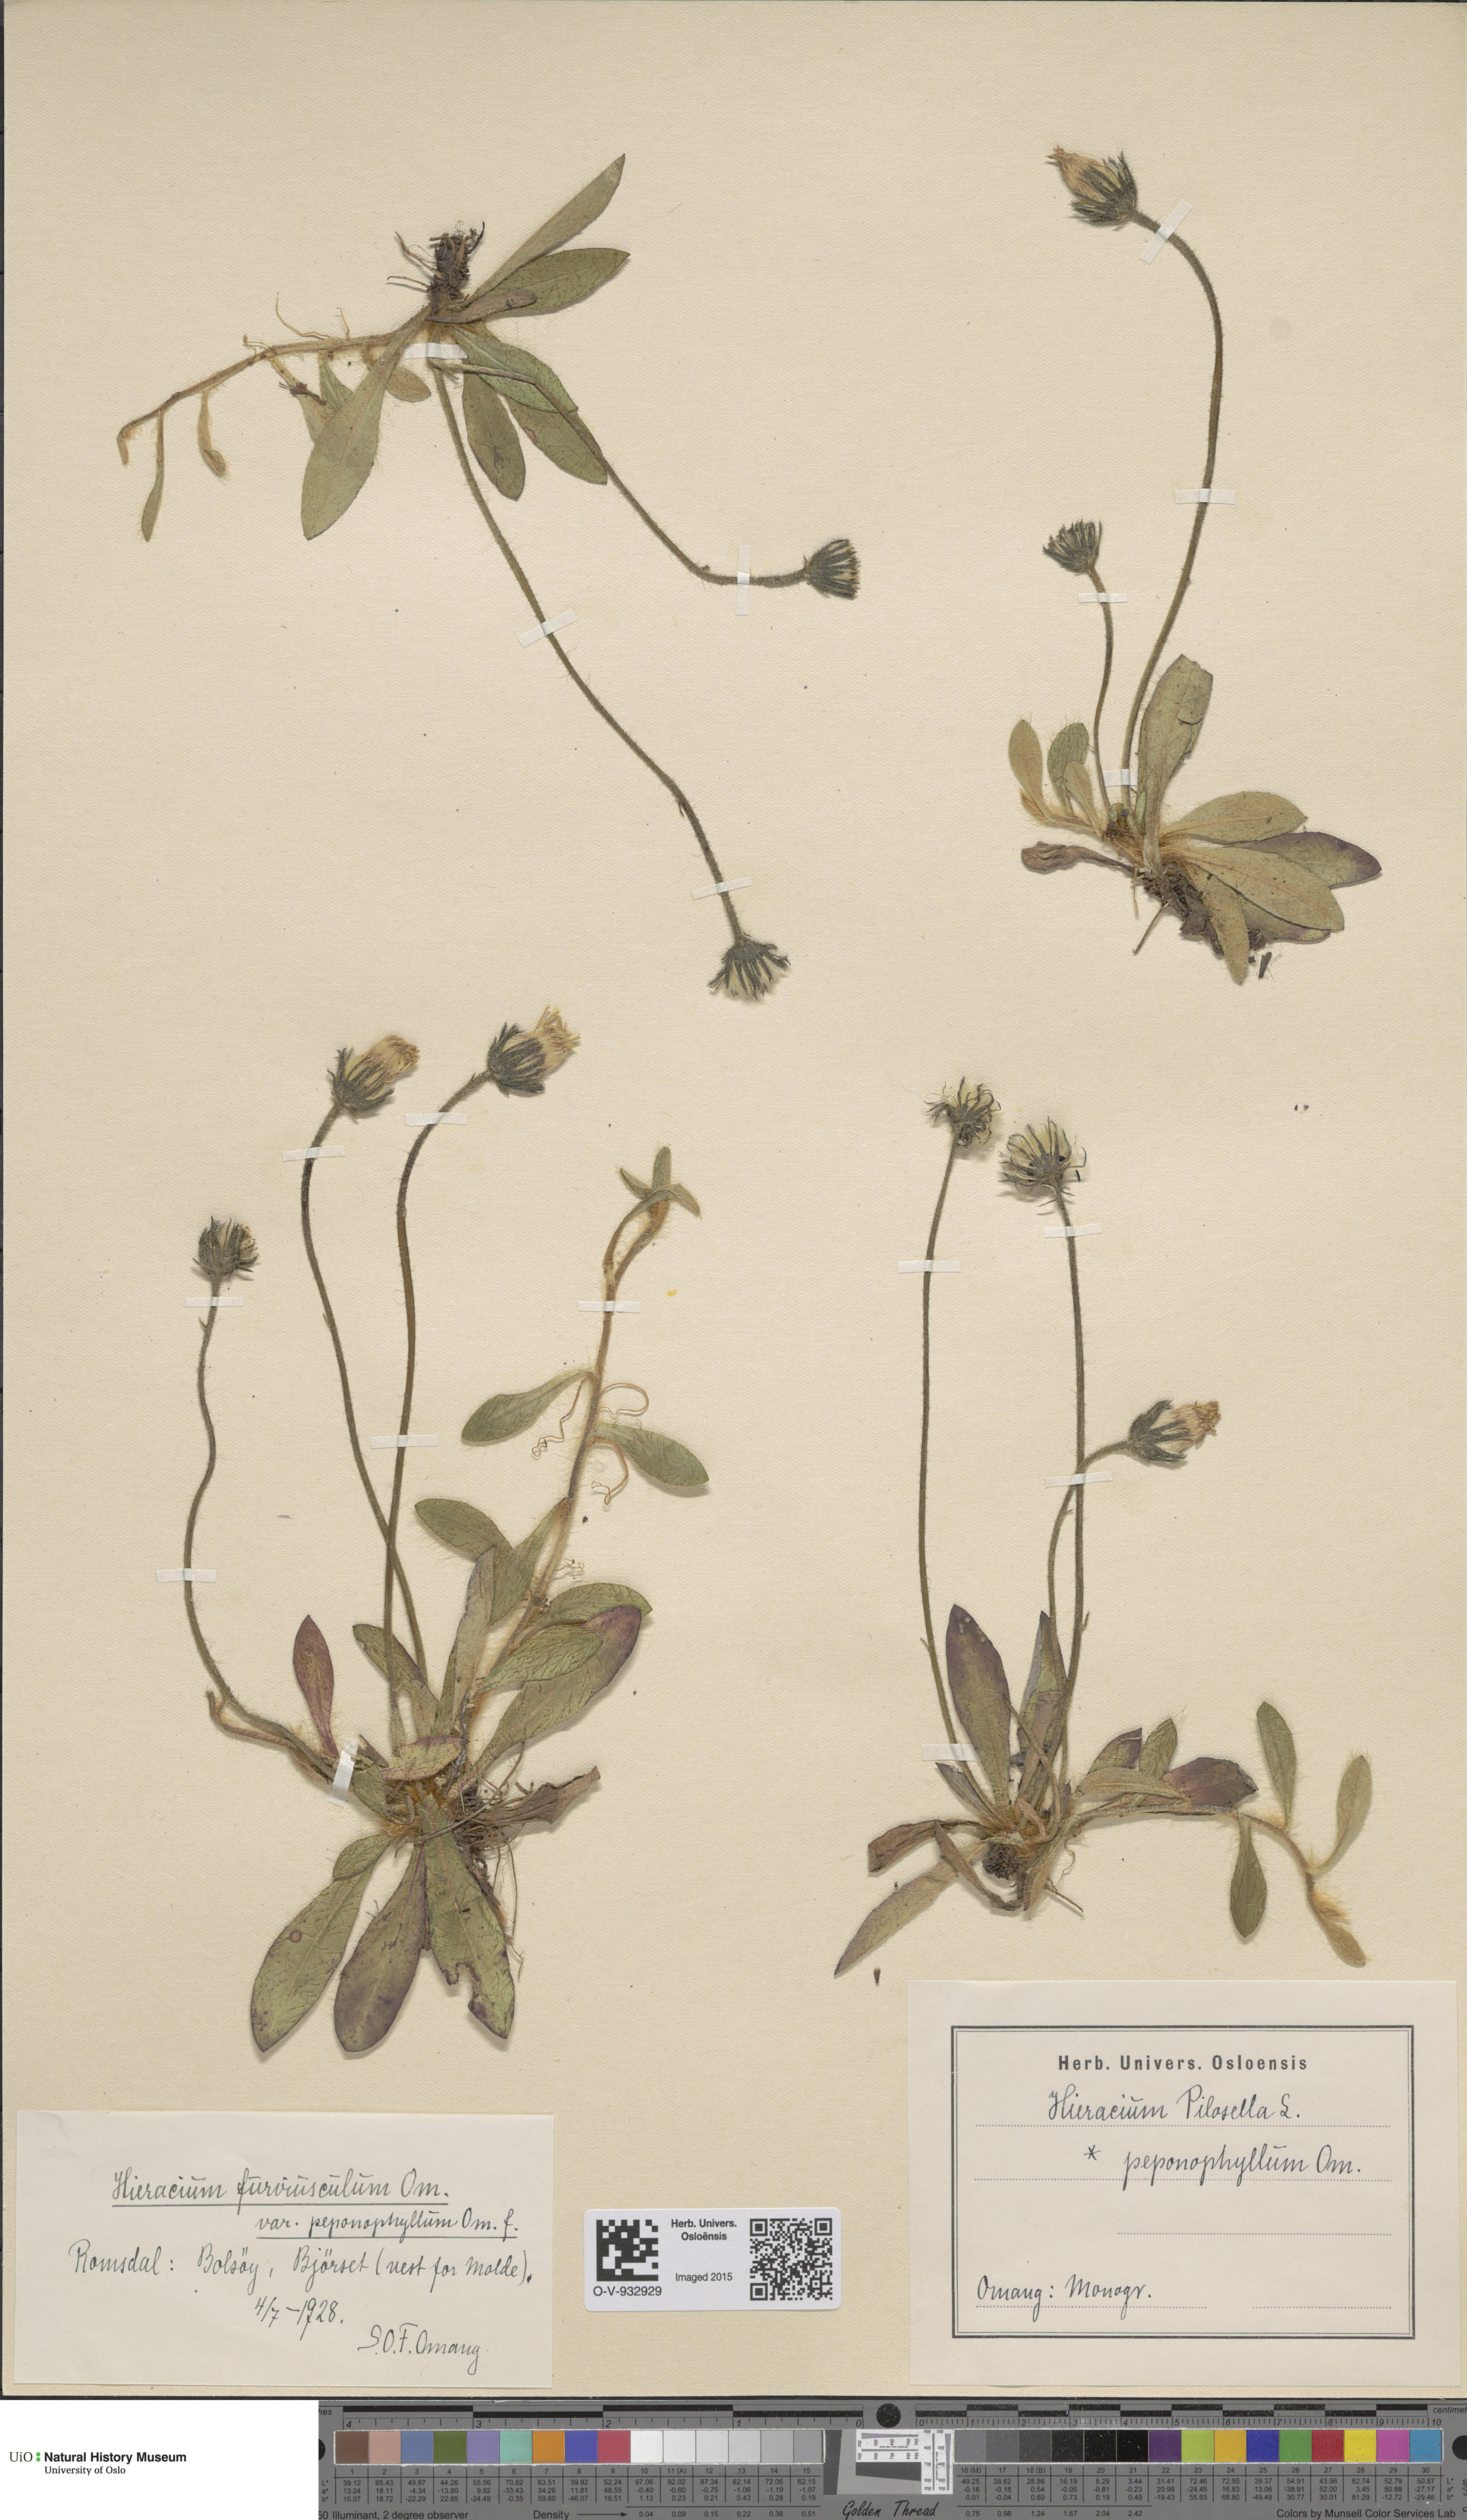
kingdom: Plantae
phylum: Tracheophyta
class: Magnoliopsida
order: Asterales
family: Asteraceae
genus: Pilosella
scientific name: Pilosella officinarum
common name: Mouse-ear hawkweed
